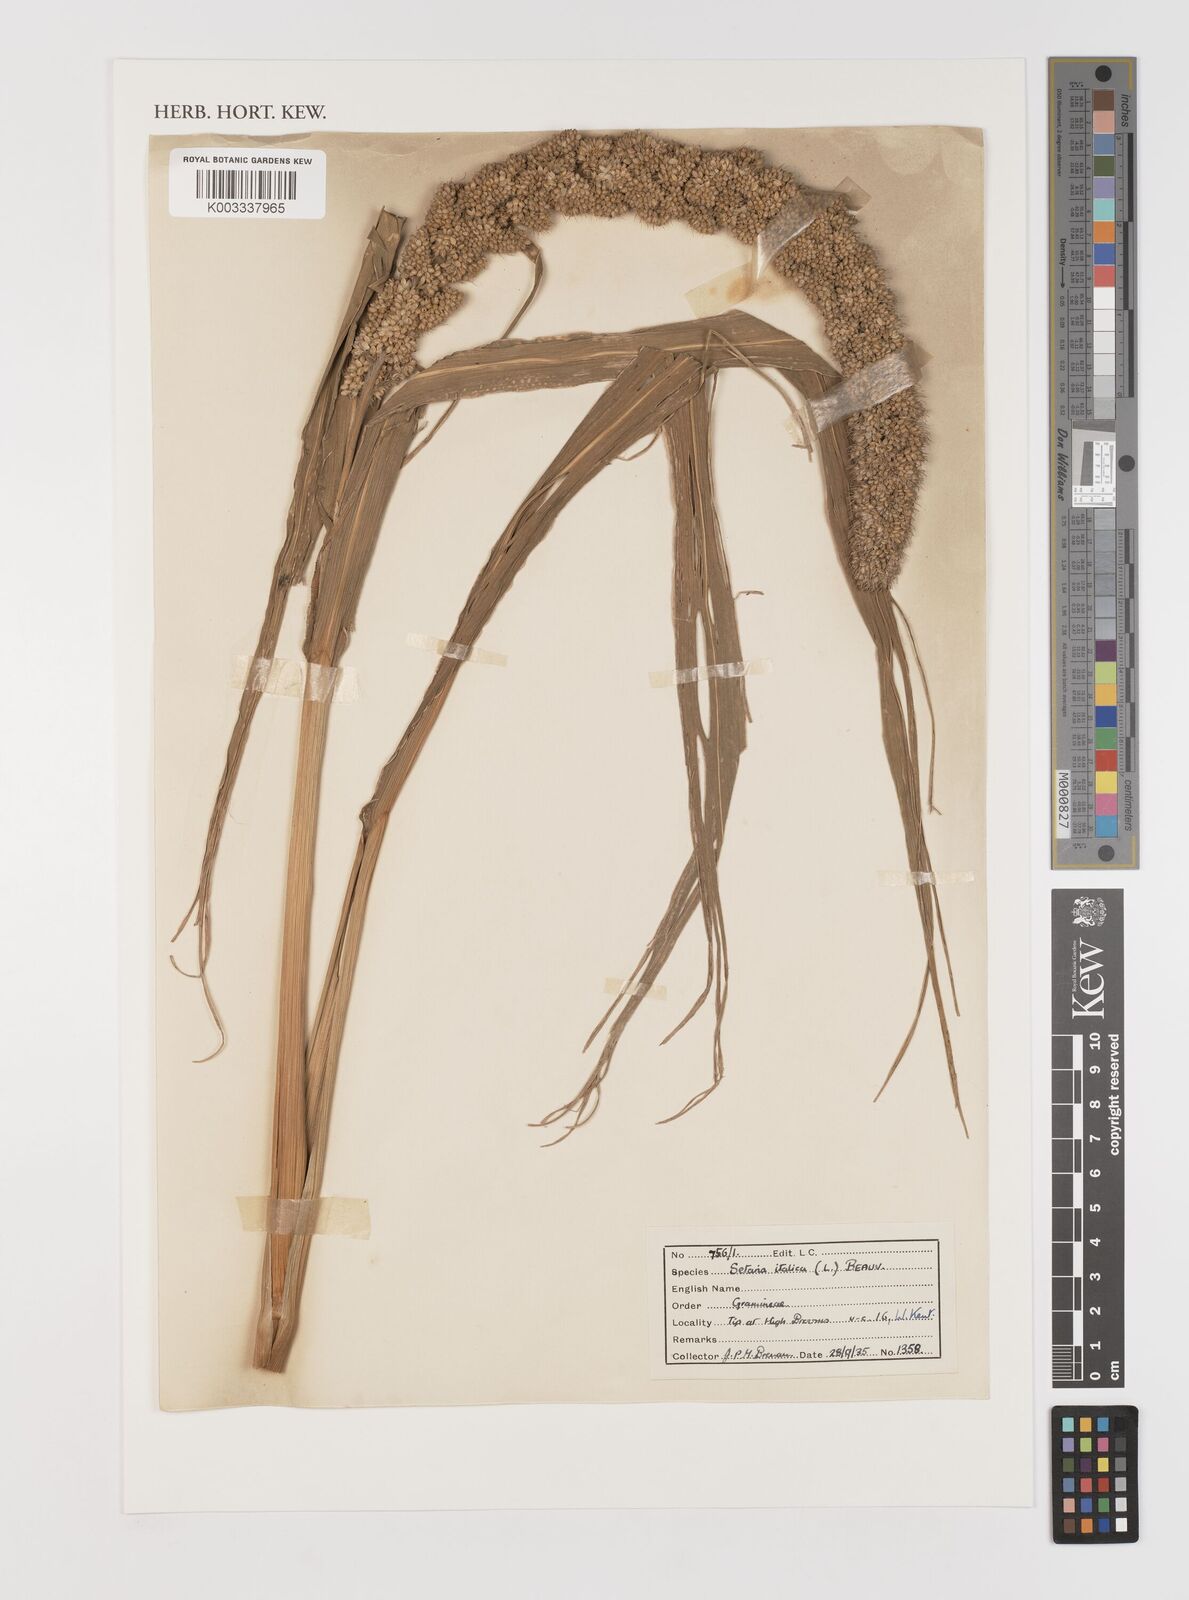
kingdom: Plantae
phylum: Tracheophyta
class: Liliopsida
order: Poales
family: Poaceae
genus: Setaria
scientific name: Setaria italica
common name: Foxtail bristle-grass
